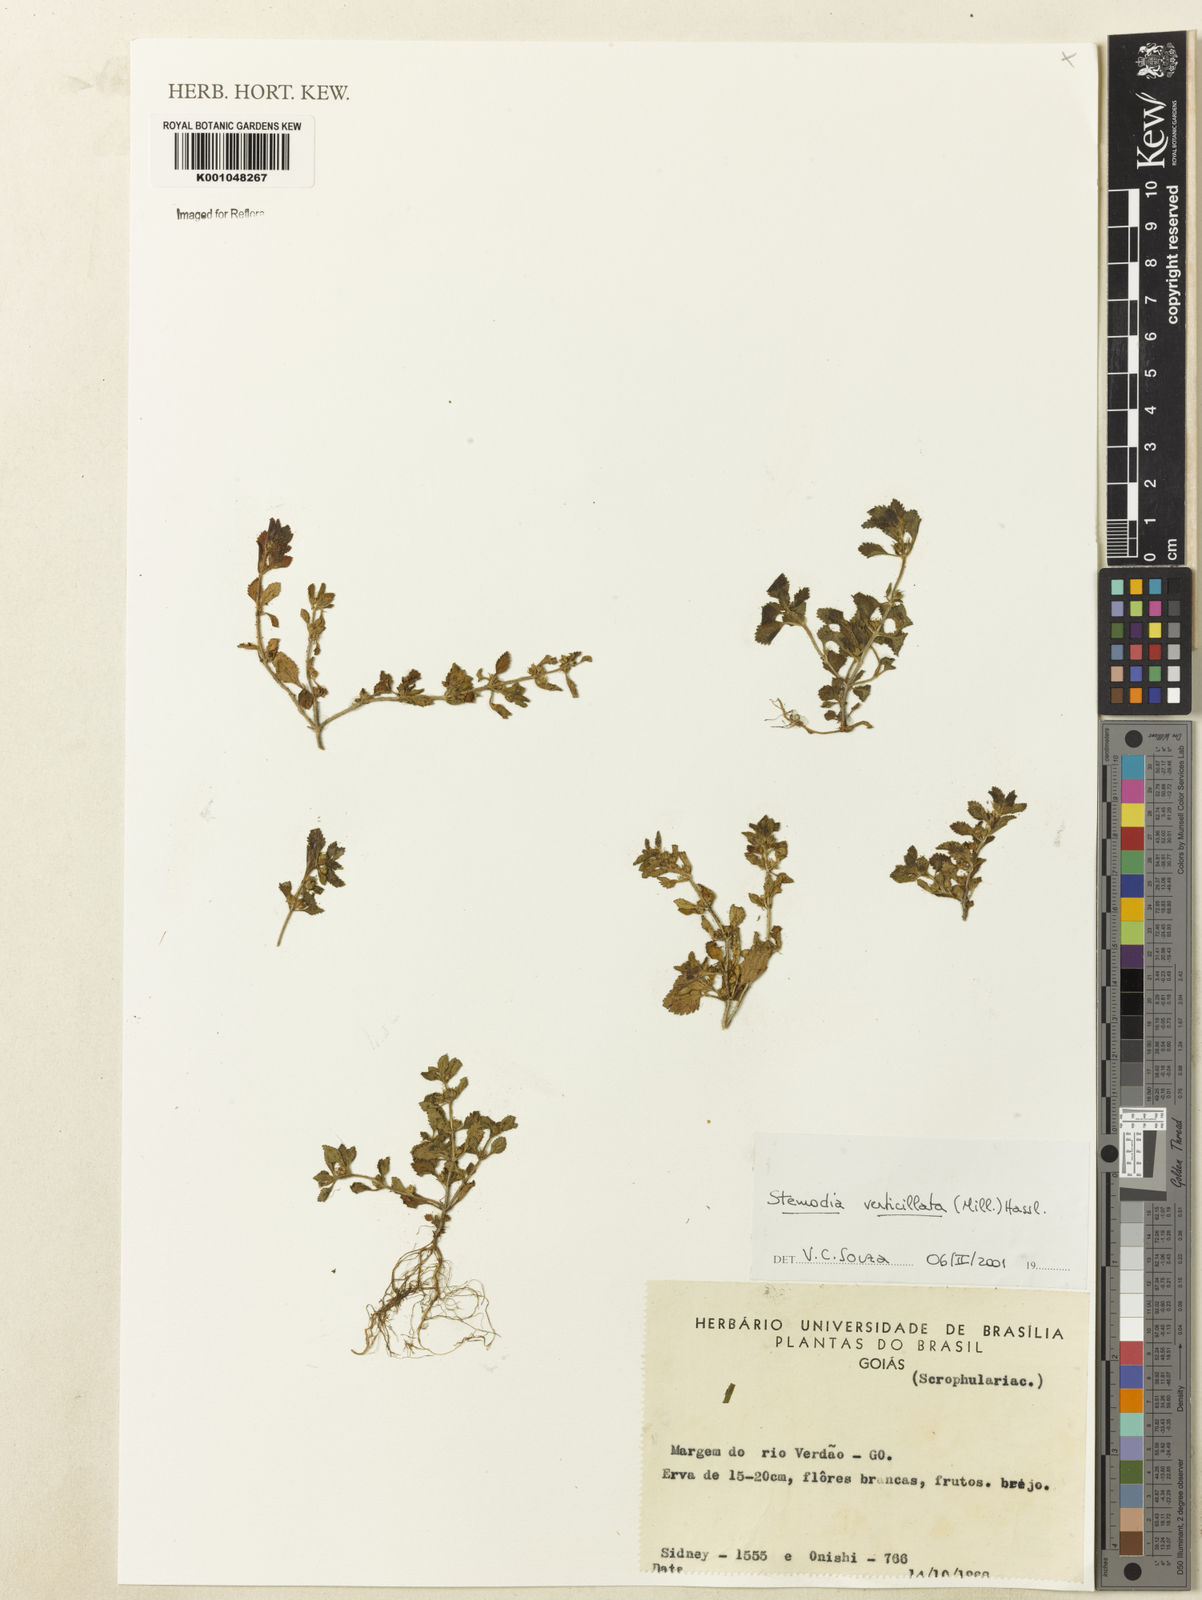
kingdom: Plantae
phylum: Tracheophyta
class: Magnoliopsida
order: Lamiales
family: Plantaginaceae
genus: Stemodia
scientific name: Stemodia verticillata
